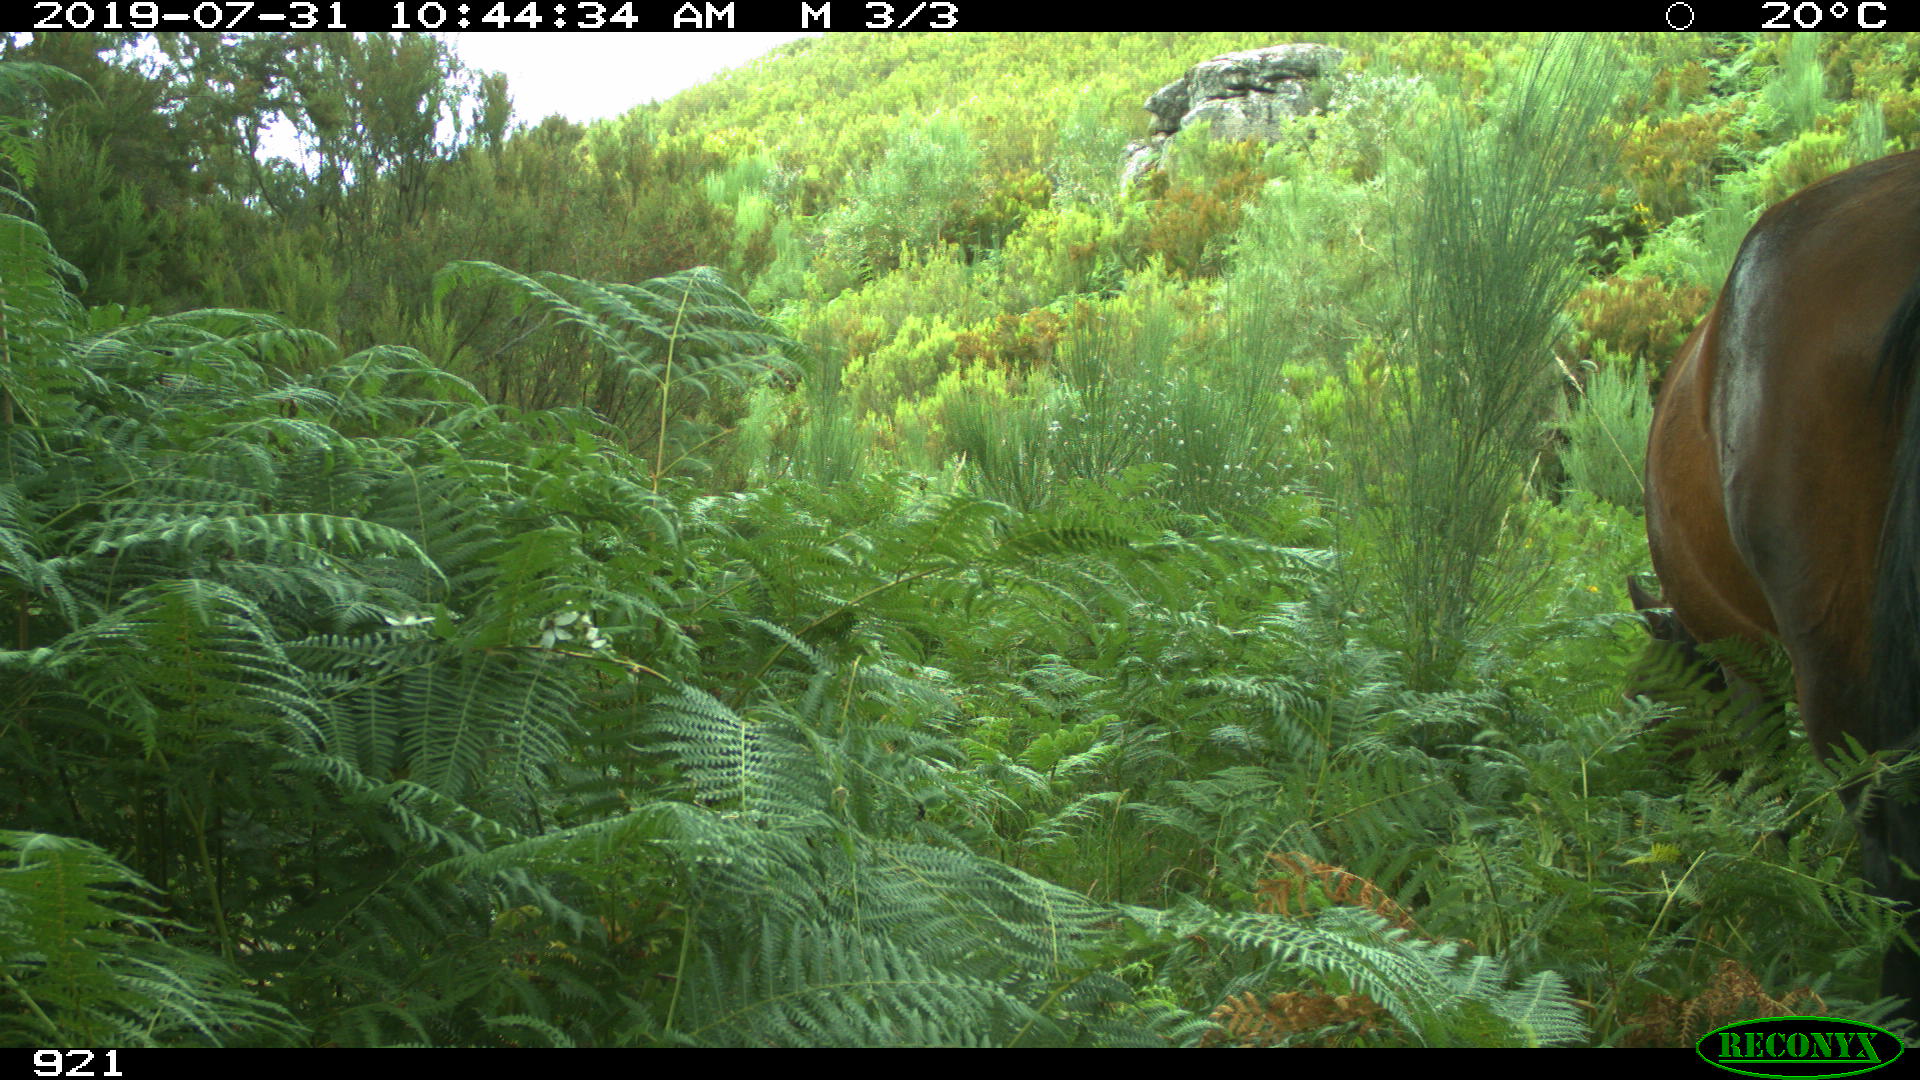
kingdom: Animalia
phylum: Chordata
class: Mammalia
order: Perissodactyla
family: Equidae
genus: Equus
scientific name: Equus caballus
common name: Horse
